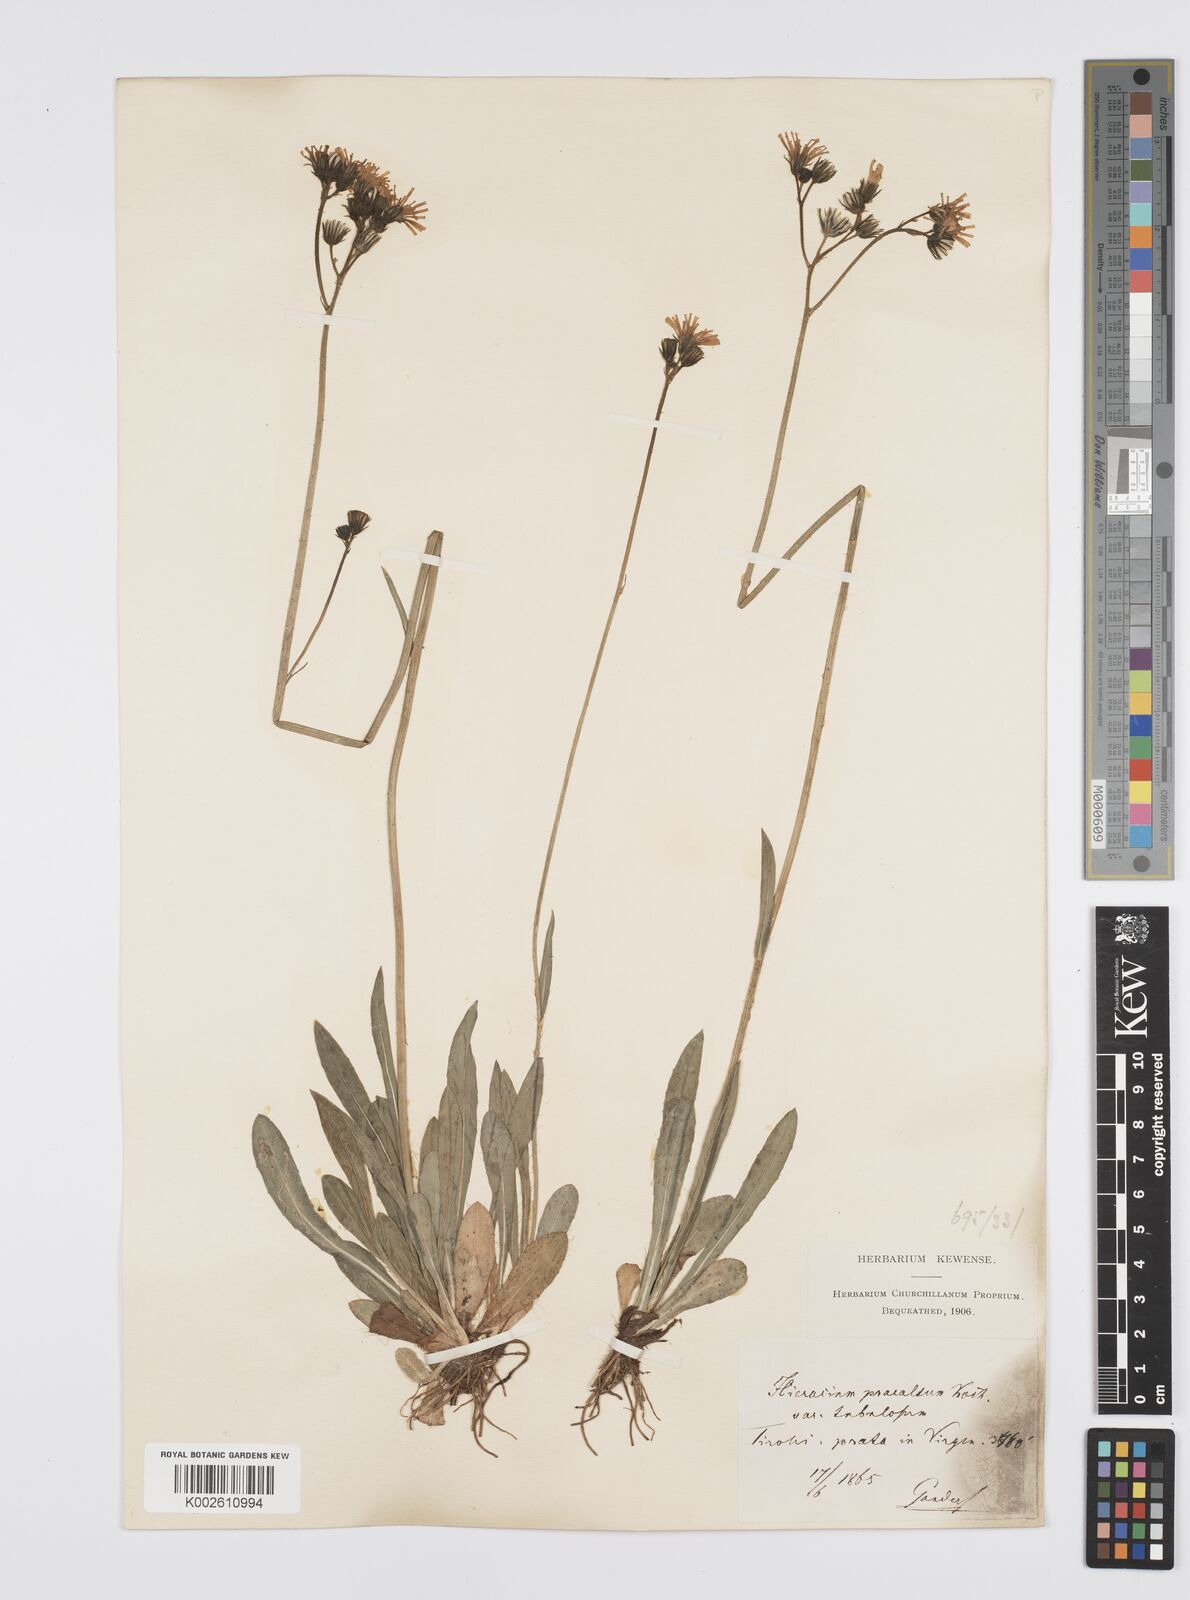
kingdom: Plantae
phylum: Tracheophyta
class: Magnoliopsida
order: Asterales
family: Asteraceae
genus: Pilosella
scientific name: Pilosella piloselloides
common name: Glaucous king-devil
